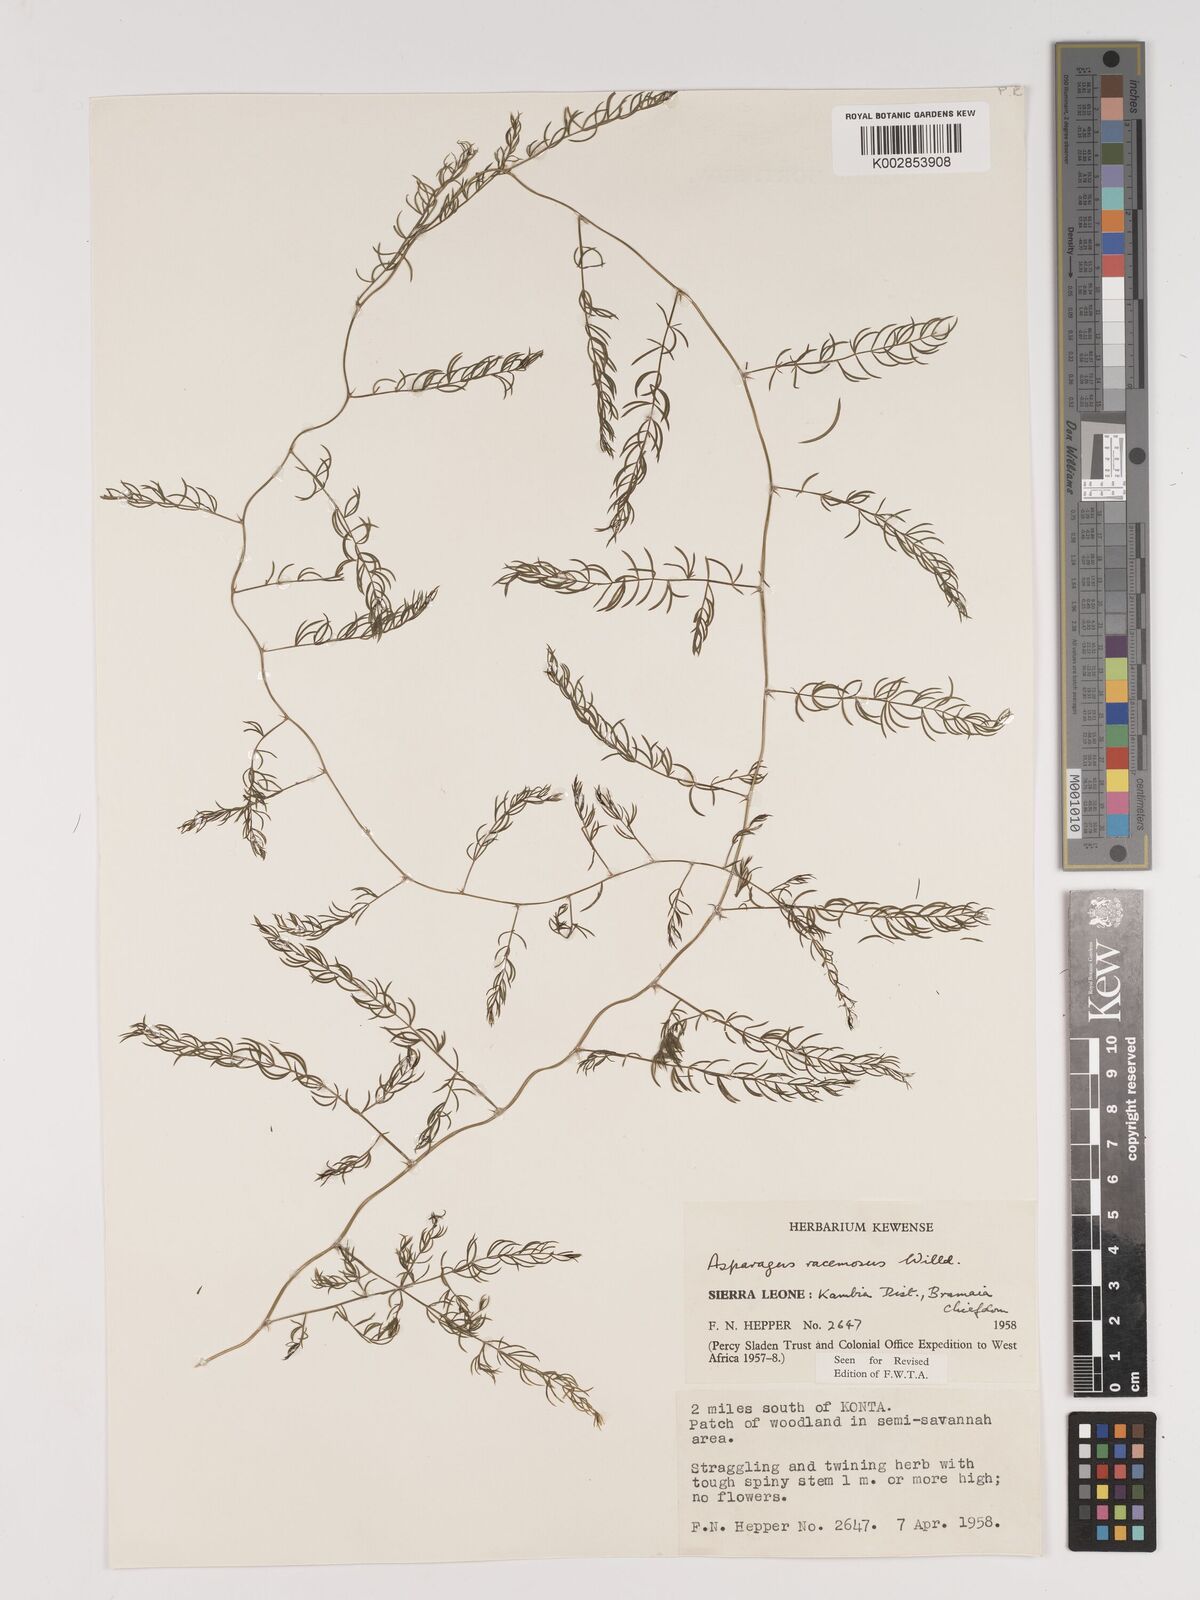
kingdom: Plantae
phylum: Tracheophyta
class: Liliopsida
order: Asparagales
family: Asparagaceae
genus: Asparagus
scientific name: Asparagus racemosus
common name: Asparagus-fern
